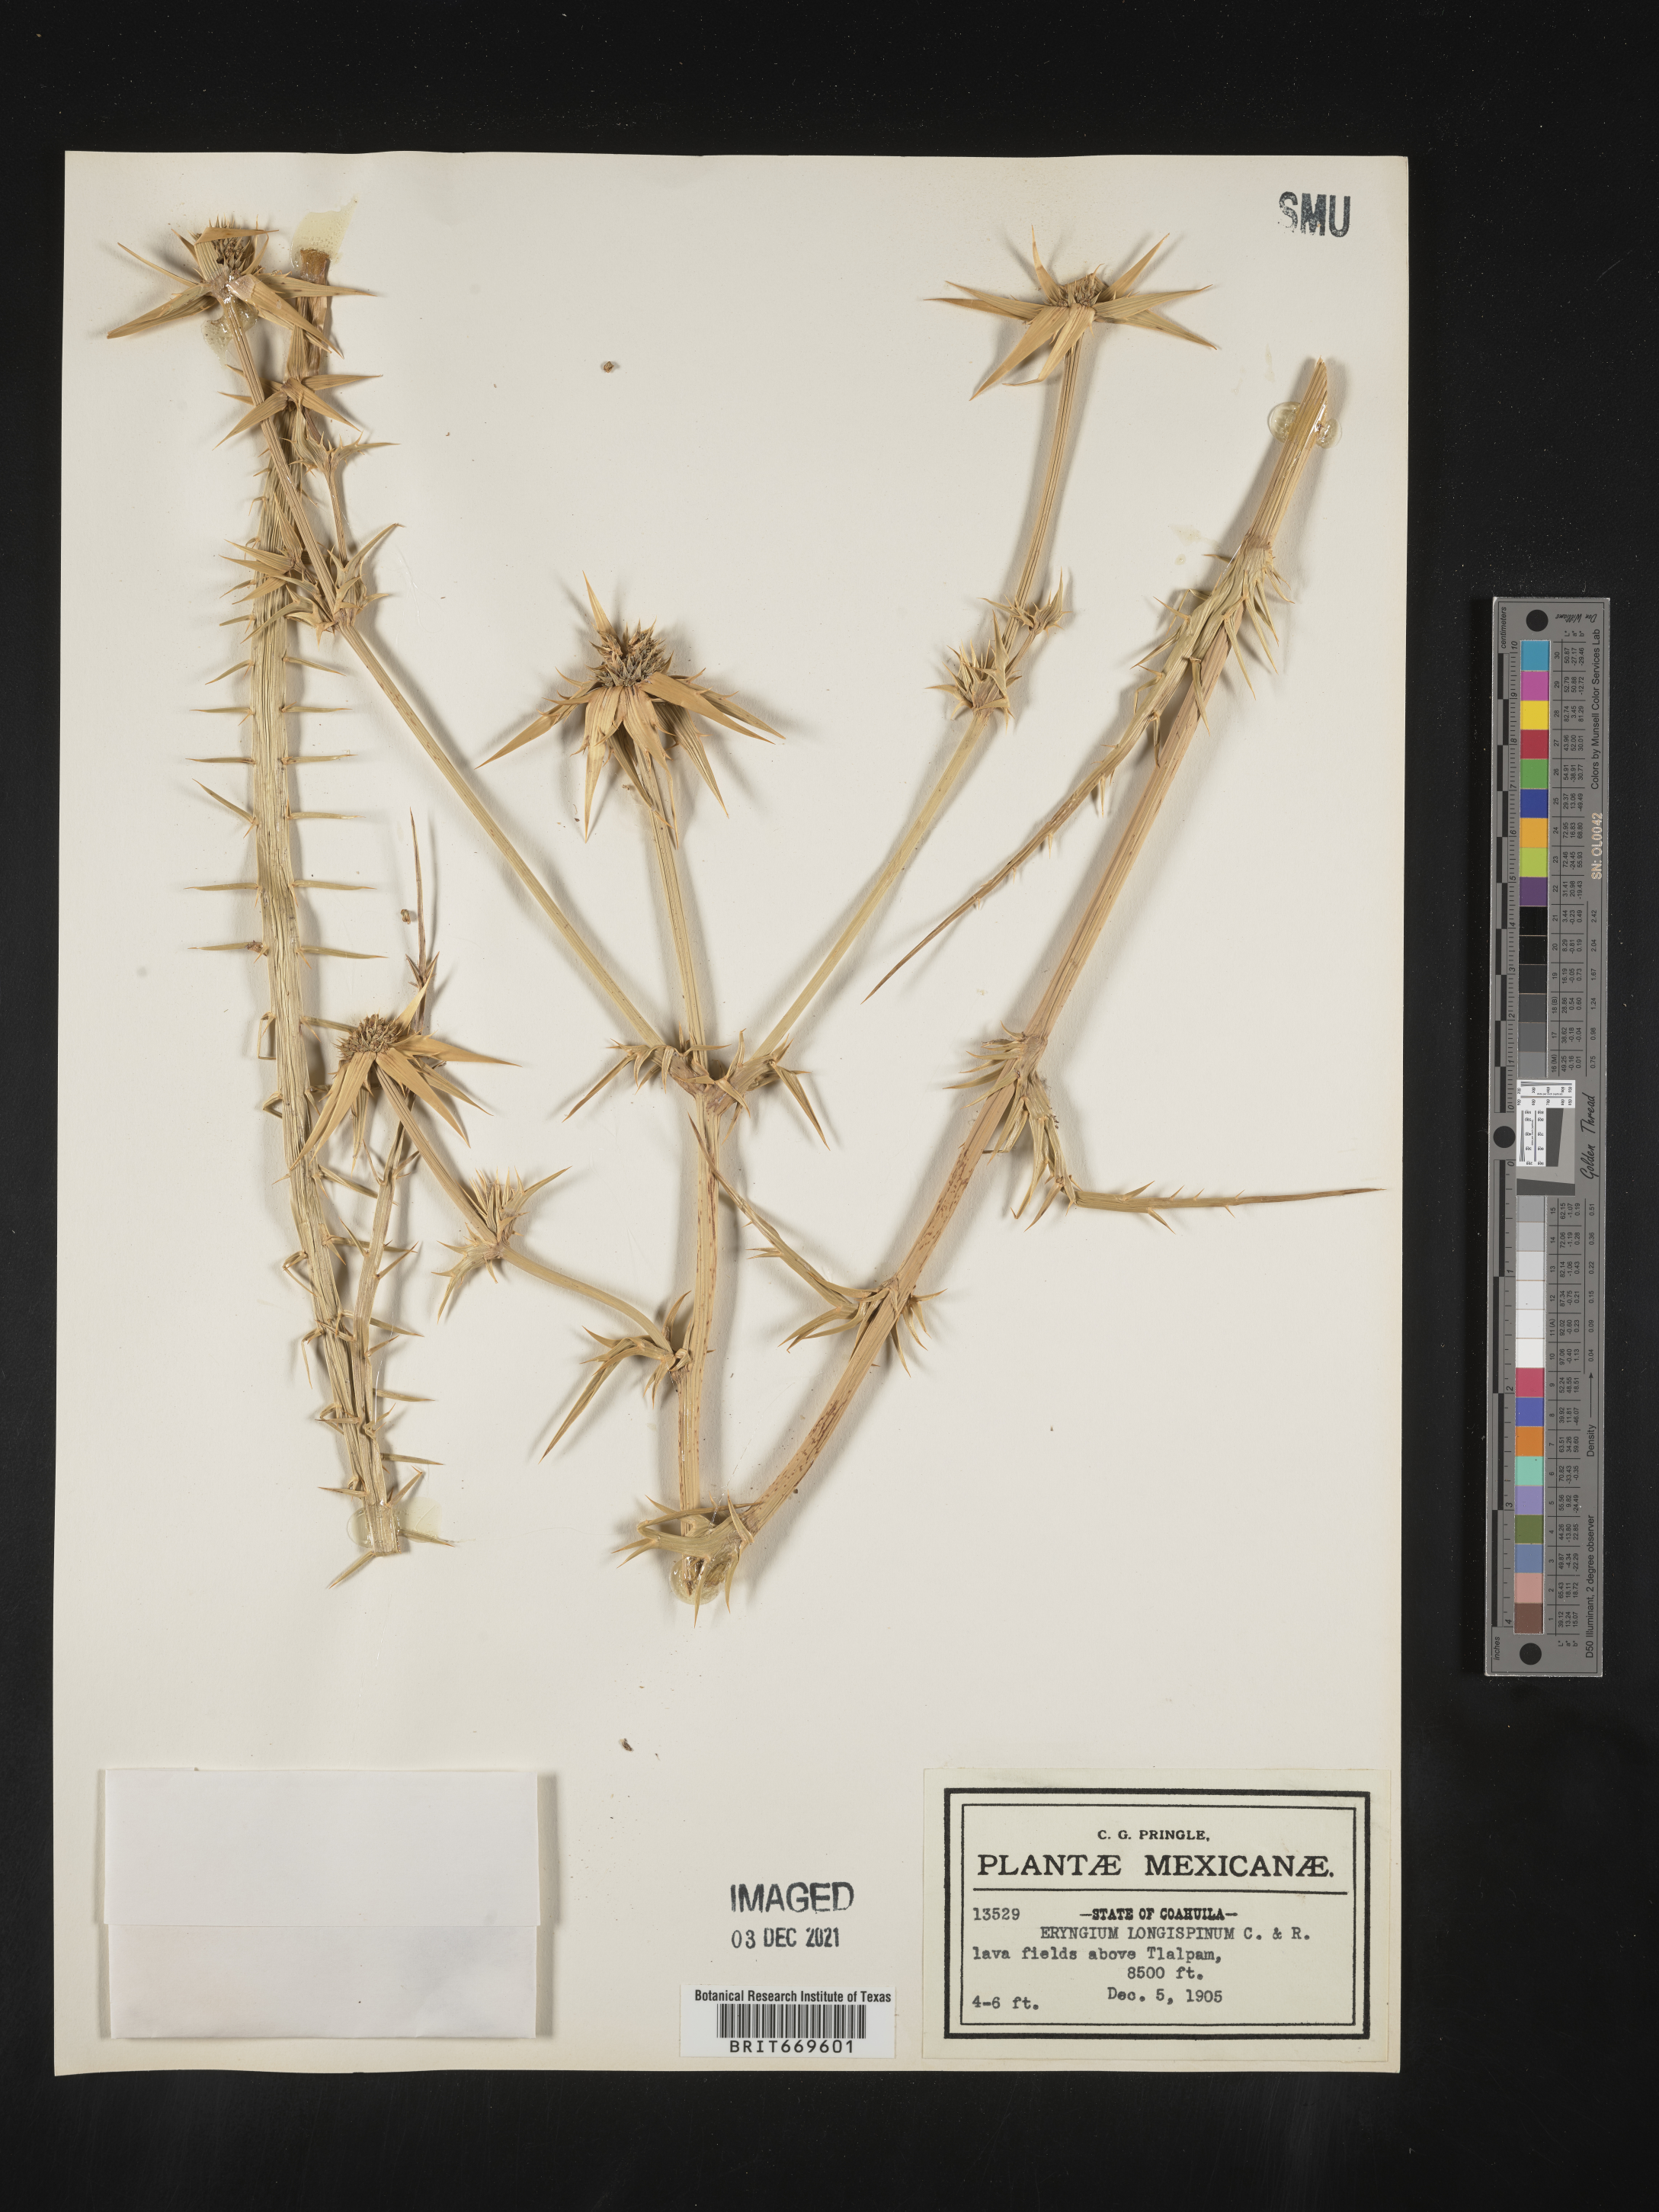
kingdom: Plantae
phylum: Tracheophyta
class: Magnoliopsida
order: Apiales
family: Apiaceae
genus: Eryngium
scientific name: Eryngium
